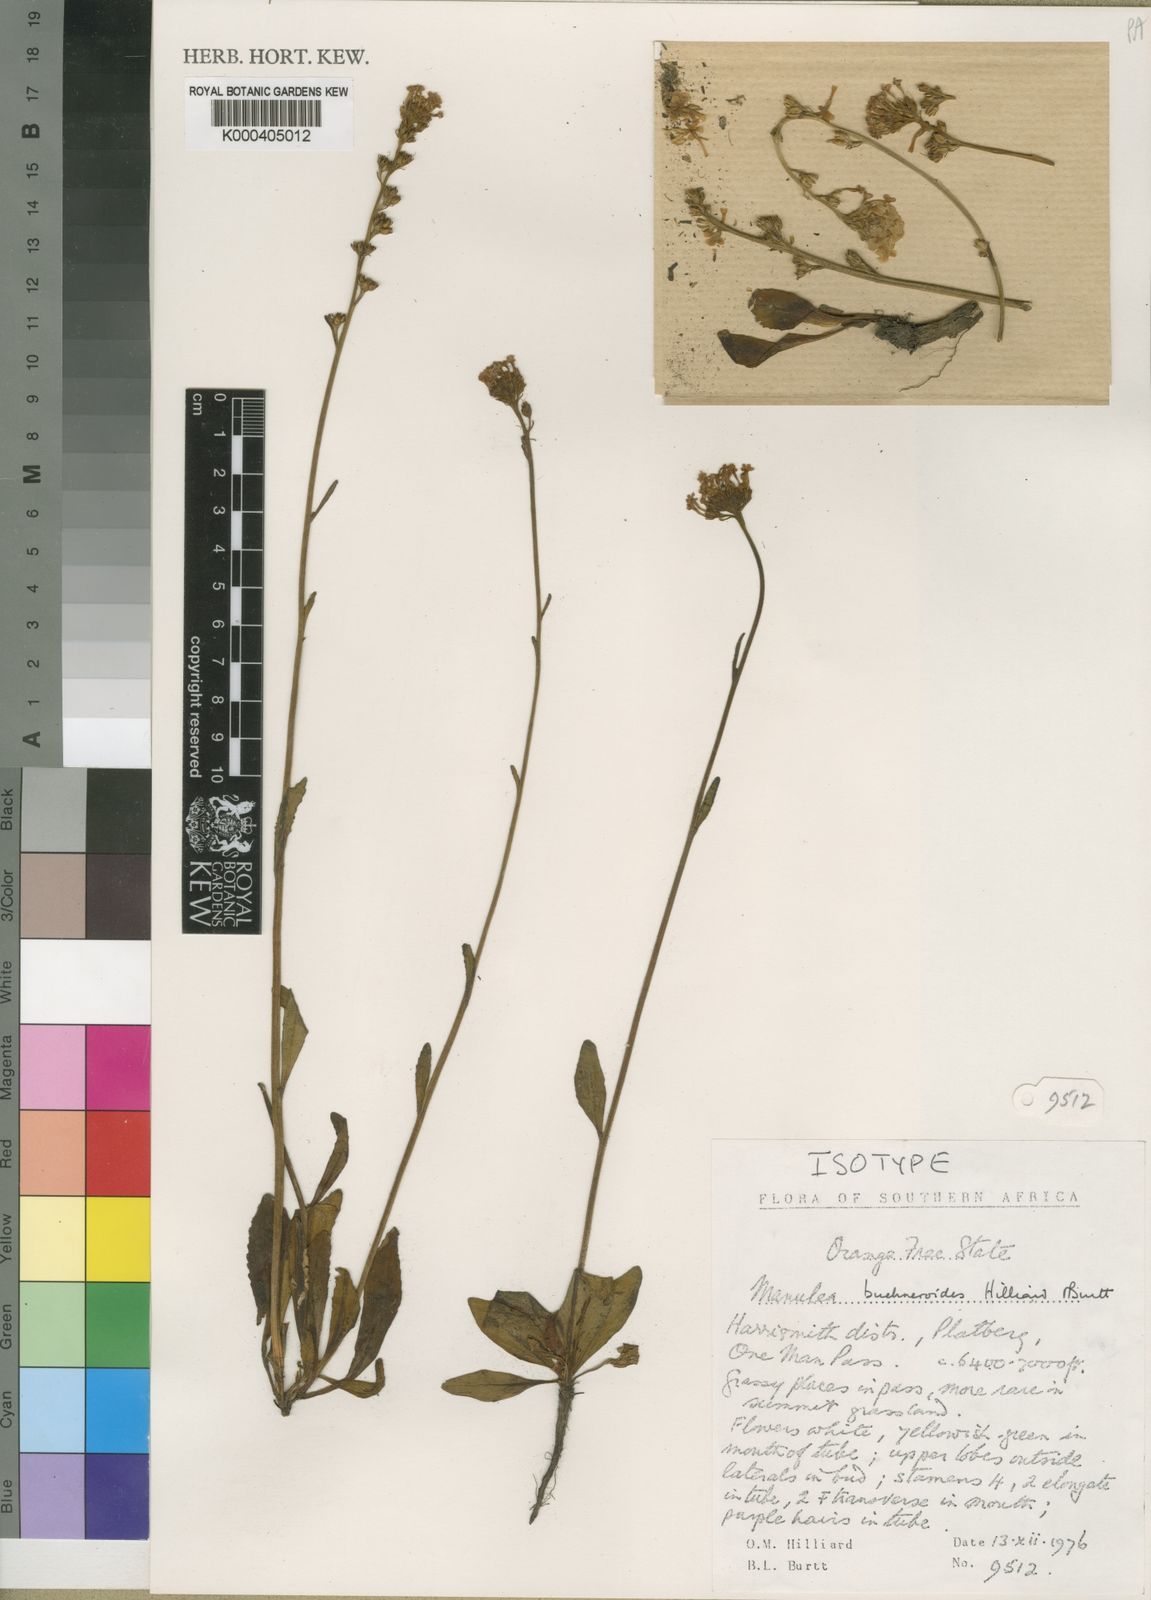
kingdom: Plantae
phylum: Tracheophyta
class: Magnoliopsida
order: Lamiales
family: Scrophulariaceae
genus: Manulea
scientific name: Manulea buchneroides
